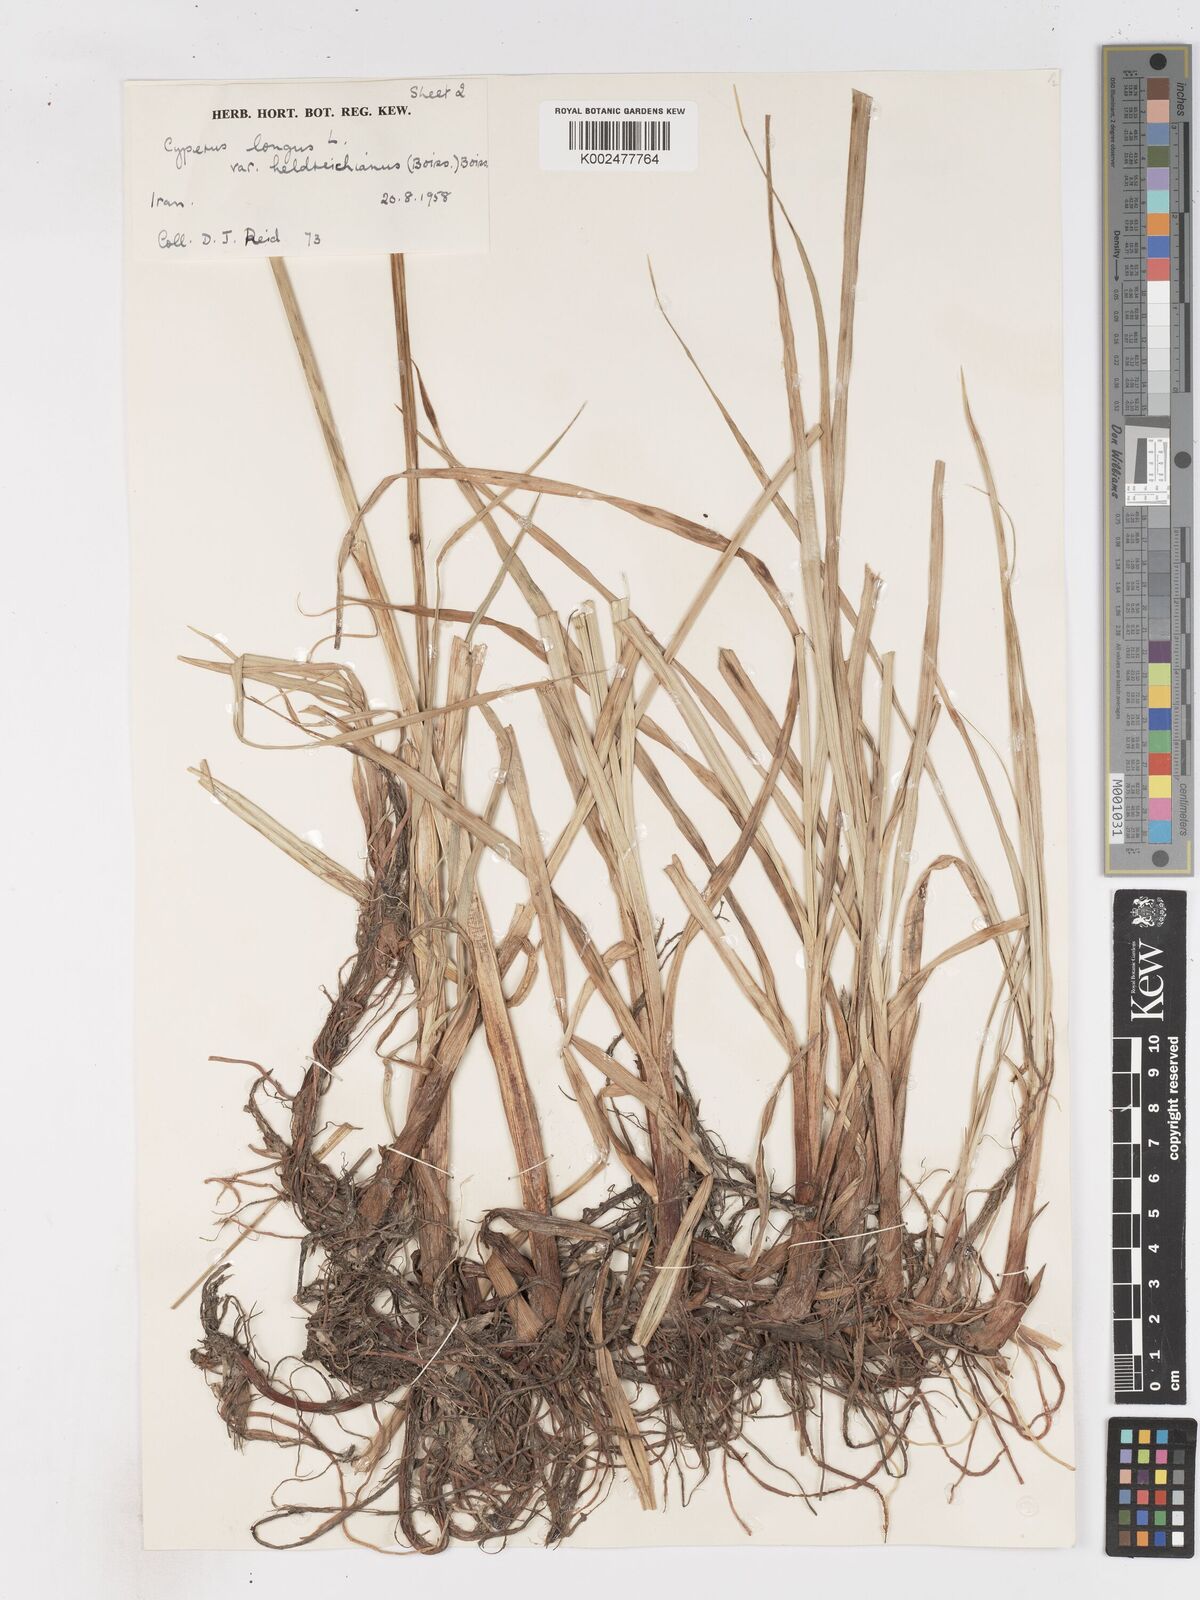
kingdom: Plantae
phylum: Tracheophyta
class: Liliopsida
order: Poales
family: Cyperaceae
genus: Cyperus
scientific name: Cyperus longus
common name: Galingale
